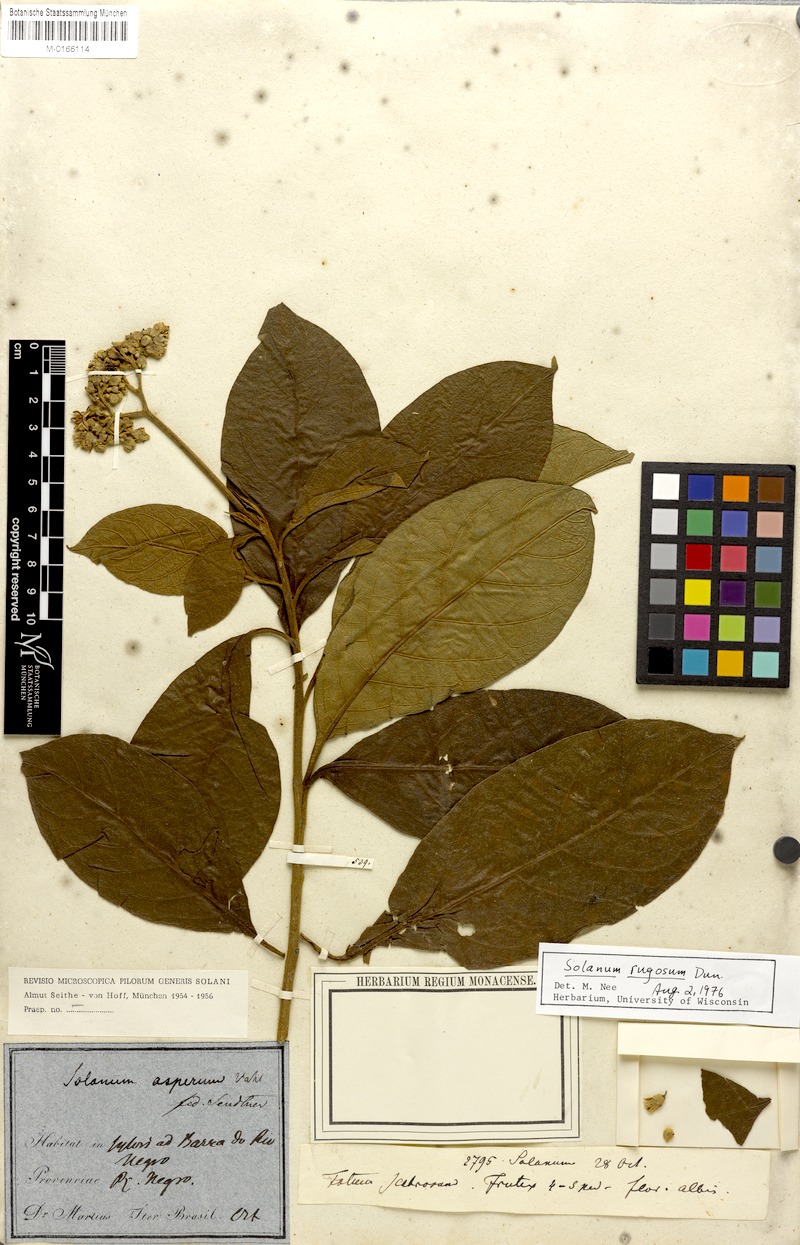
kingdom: Plantae
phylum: Tracheophyta
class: Magnoliopsida
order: Solanales
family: Solanaceae
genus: Solanum
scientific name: Solanum rugosum
